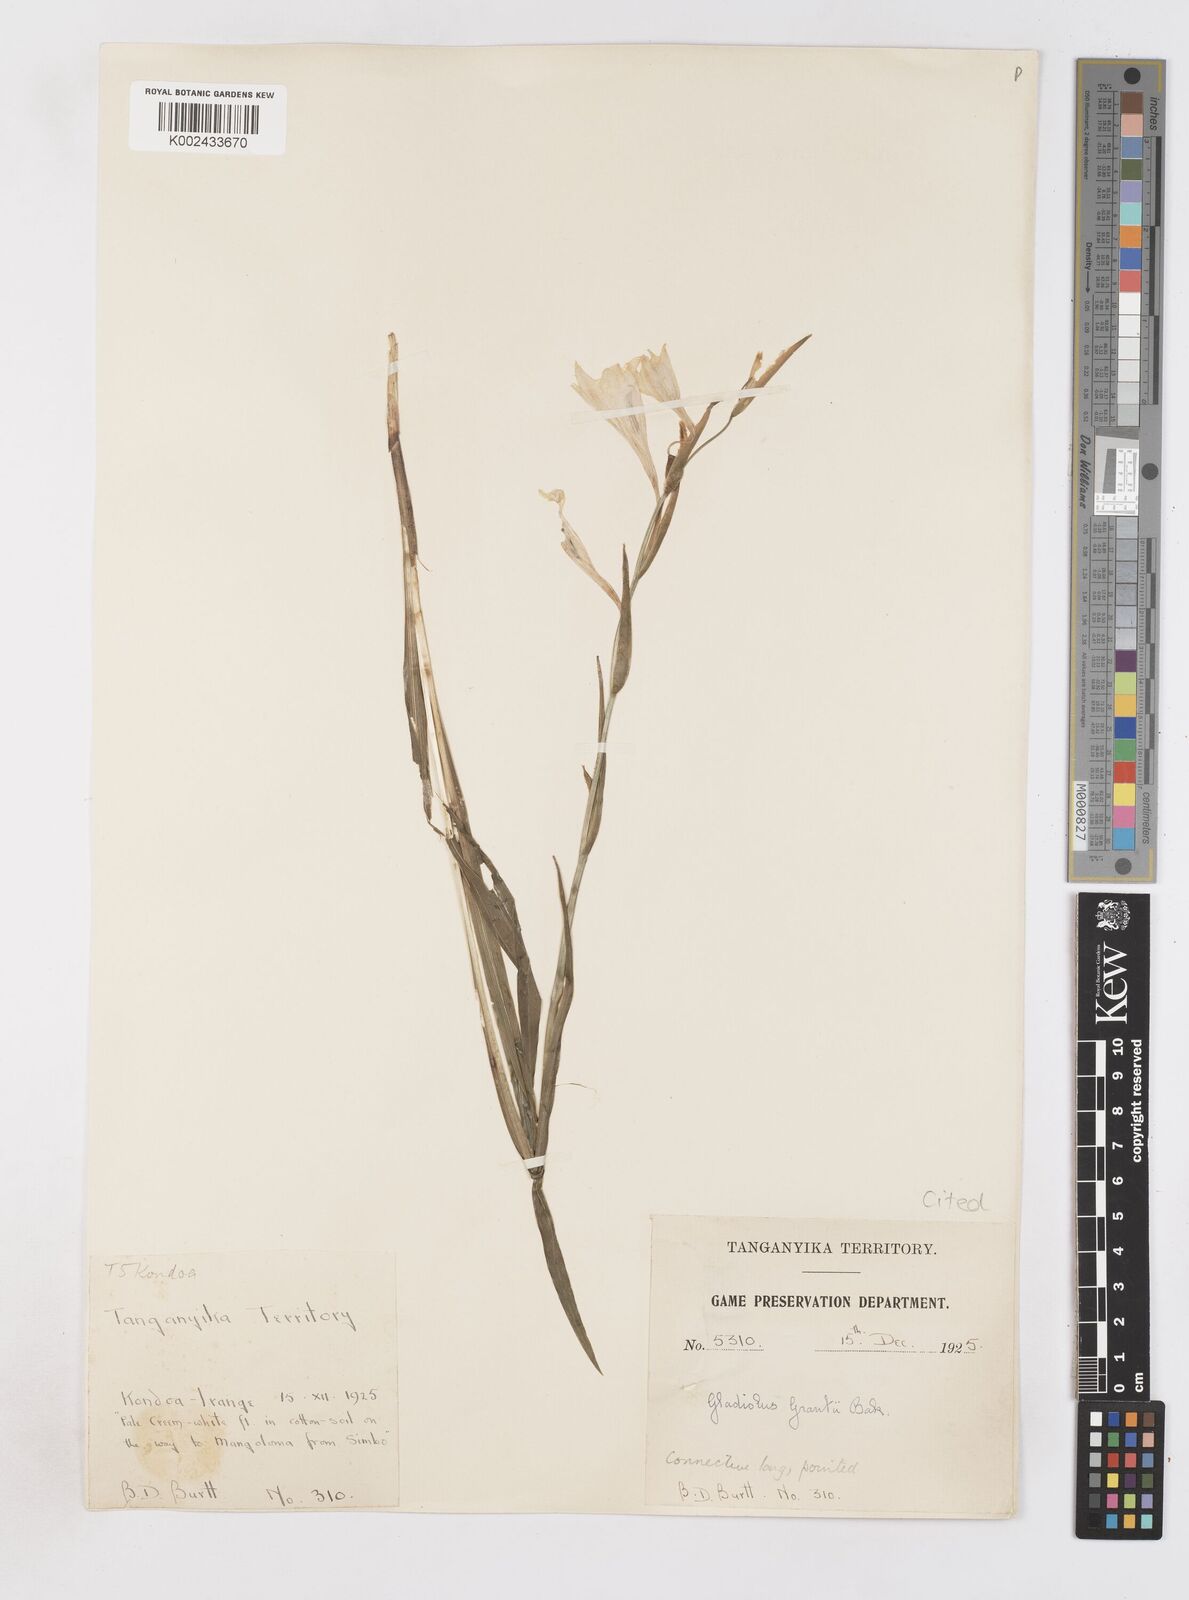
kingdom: Plantae
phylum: Tracheophyta
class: Liliopsida
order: Asparagales
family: Iridaceae
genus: Gladiolus
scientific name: Gladiolus grantii
